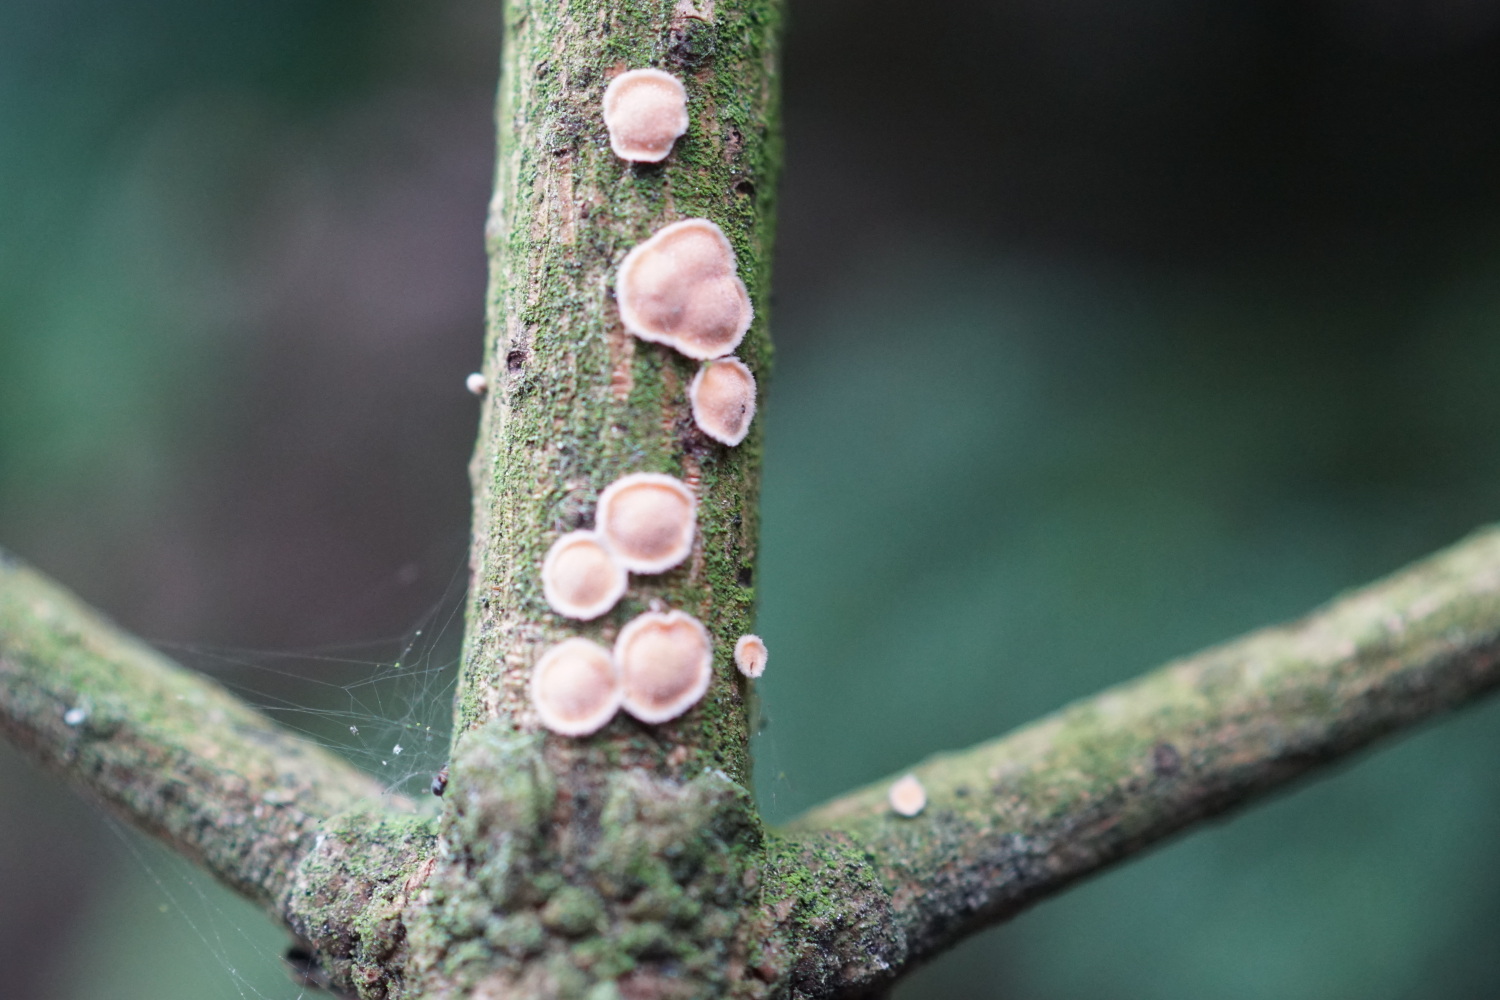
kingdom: Fungi
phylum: Basidiomycota
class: Agaricomycetes
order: Russulales
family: Stereaceae
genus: Aleurodiscus
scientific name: Aleurodiscus amorphus
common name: orange skiveskorpe
